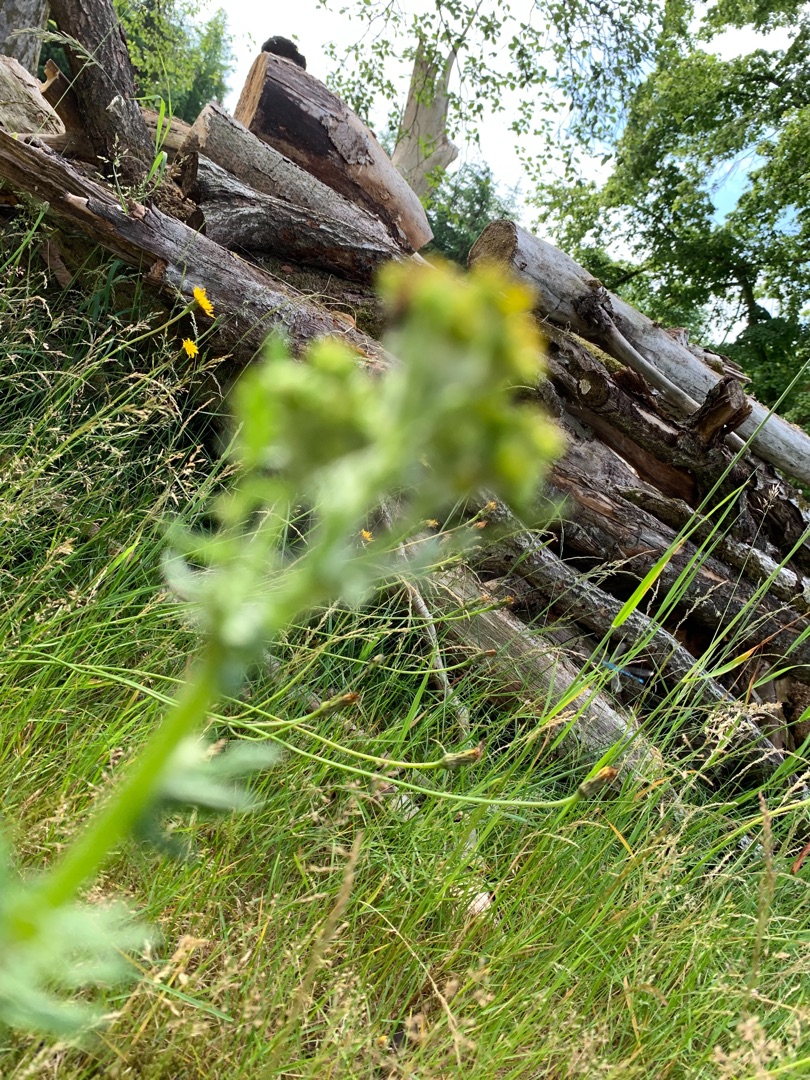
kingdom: Plantae
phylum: Tracheophyta
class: Magnoliopsida
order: Asterales
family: Asteraceae
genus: Jacobaea
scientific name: Jacobaea vulgaris
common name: Eng-brandbæger
